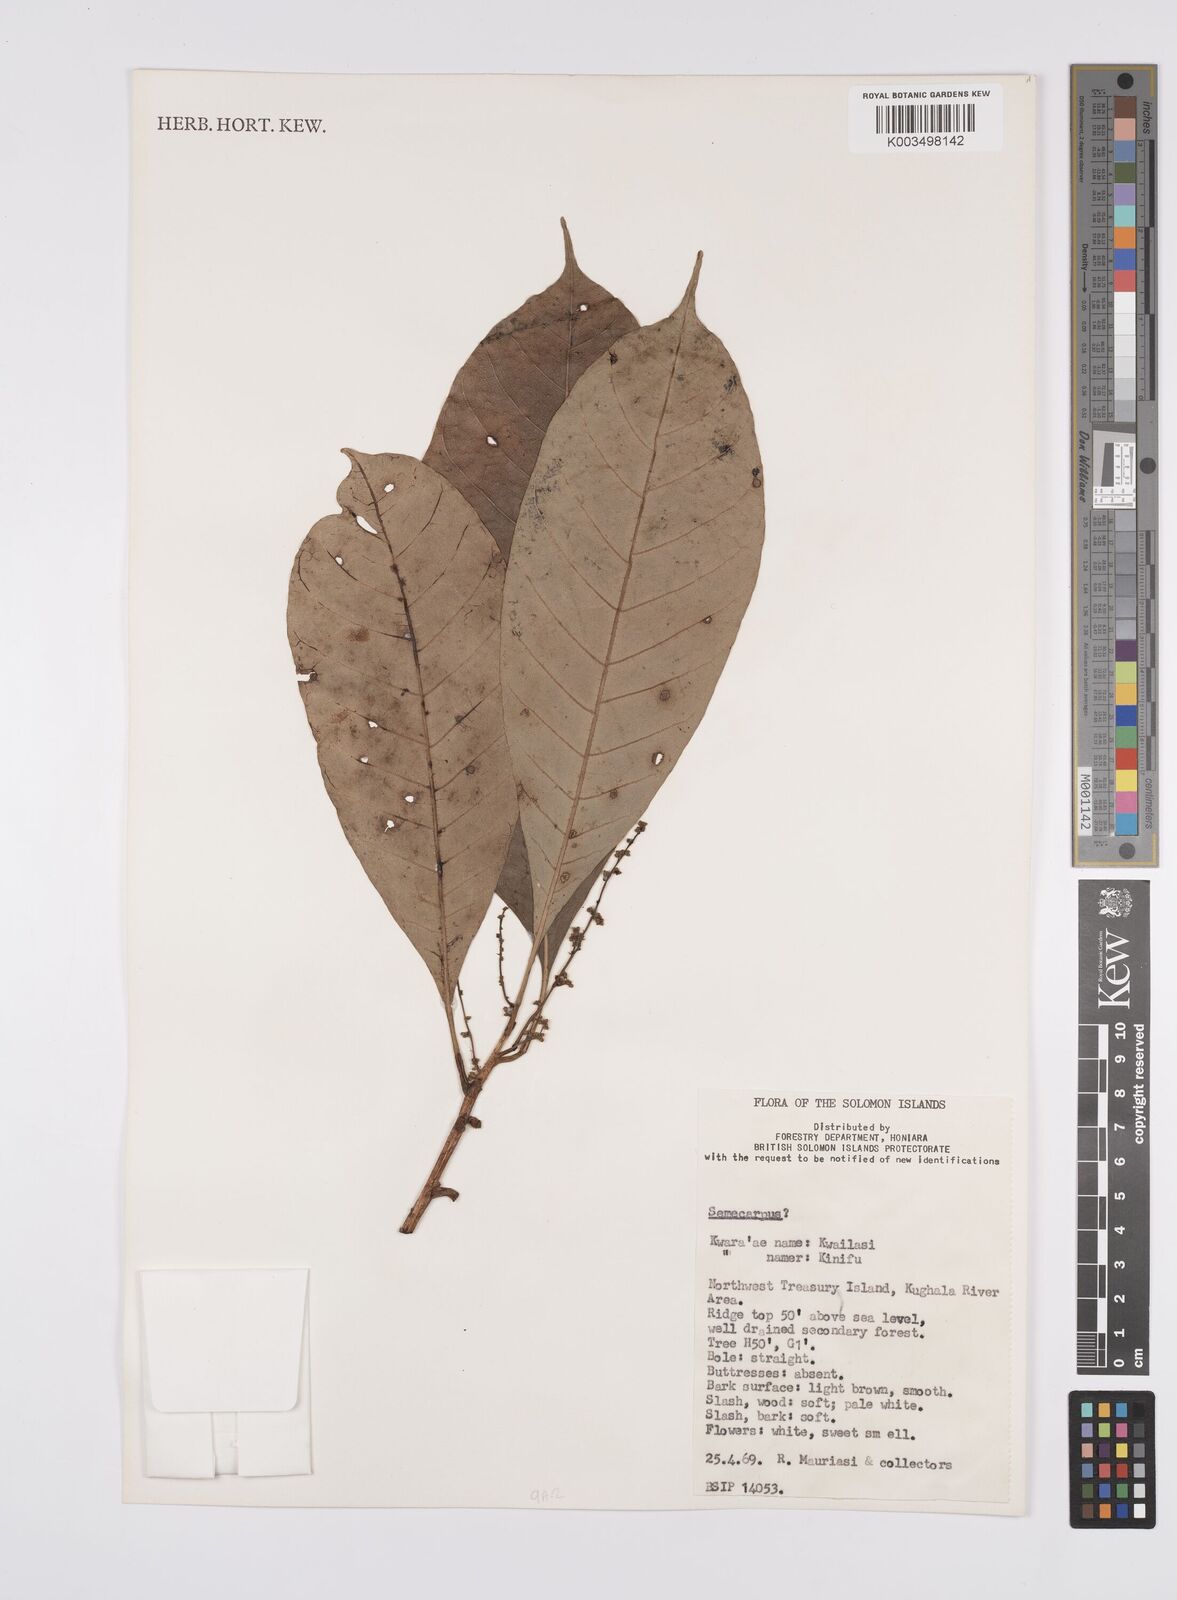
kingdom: Plantae
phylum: Tracheophyta
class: Magnoliopsida
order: Sapindales
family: Anacardiaceae
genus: Semecarpus
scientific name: Semecarpus
